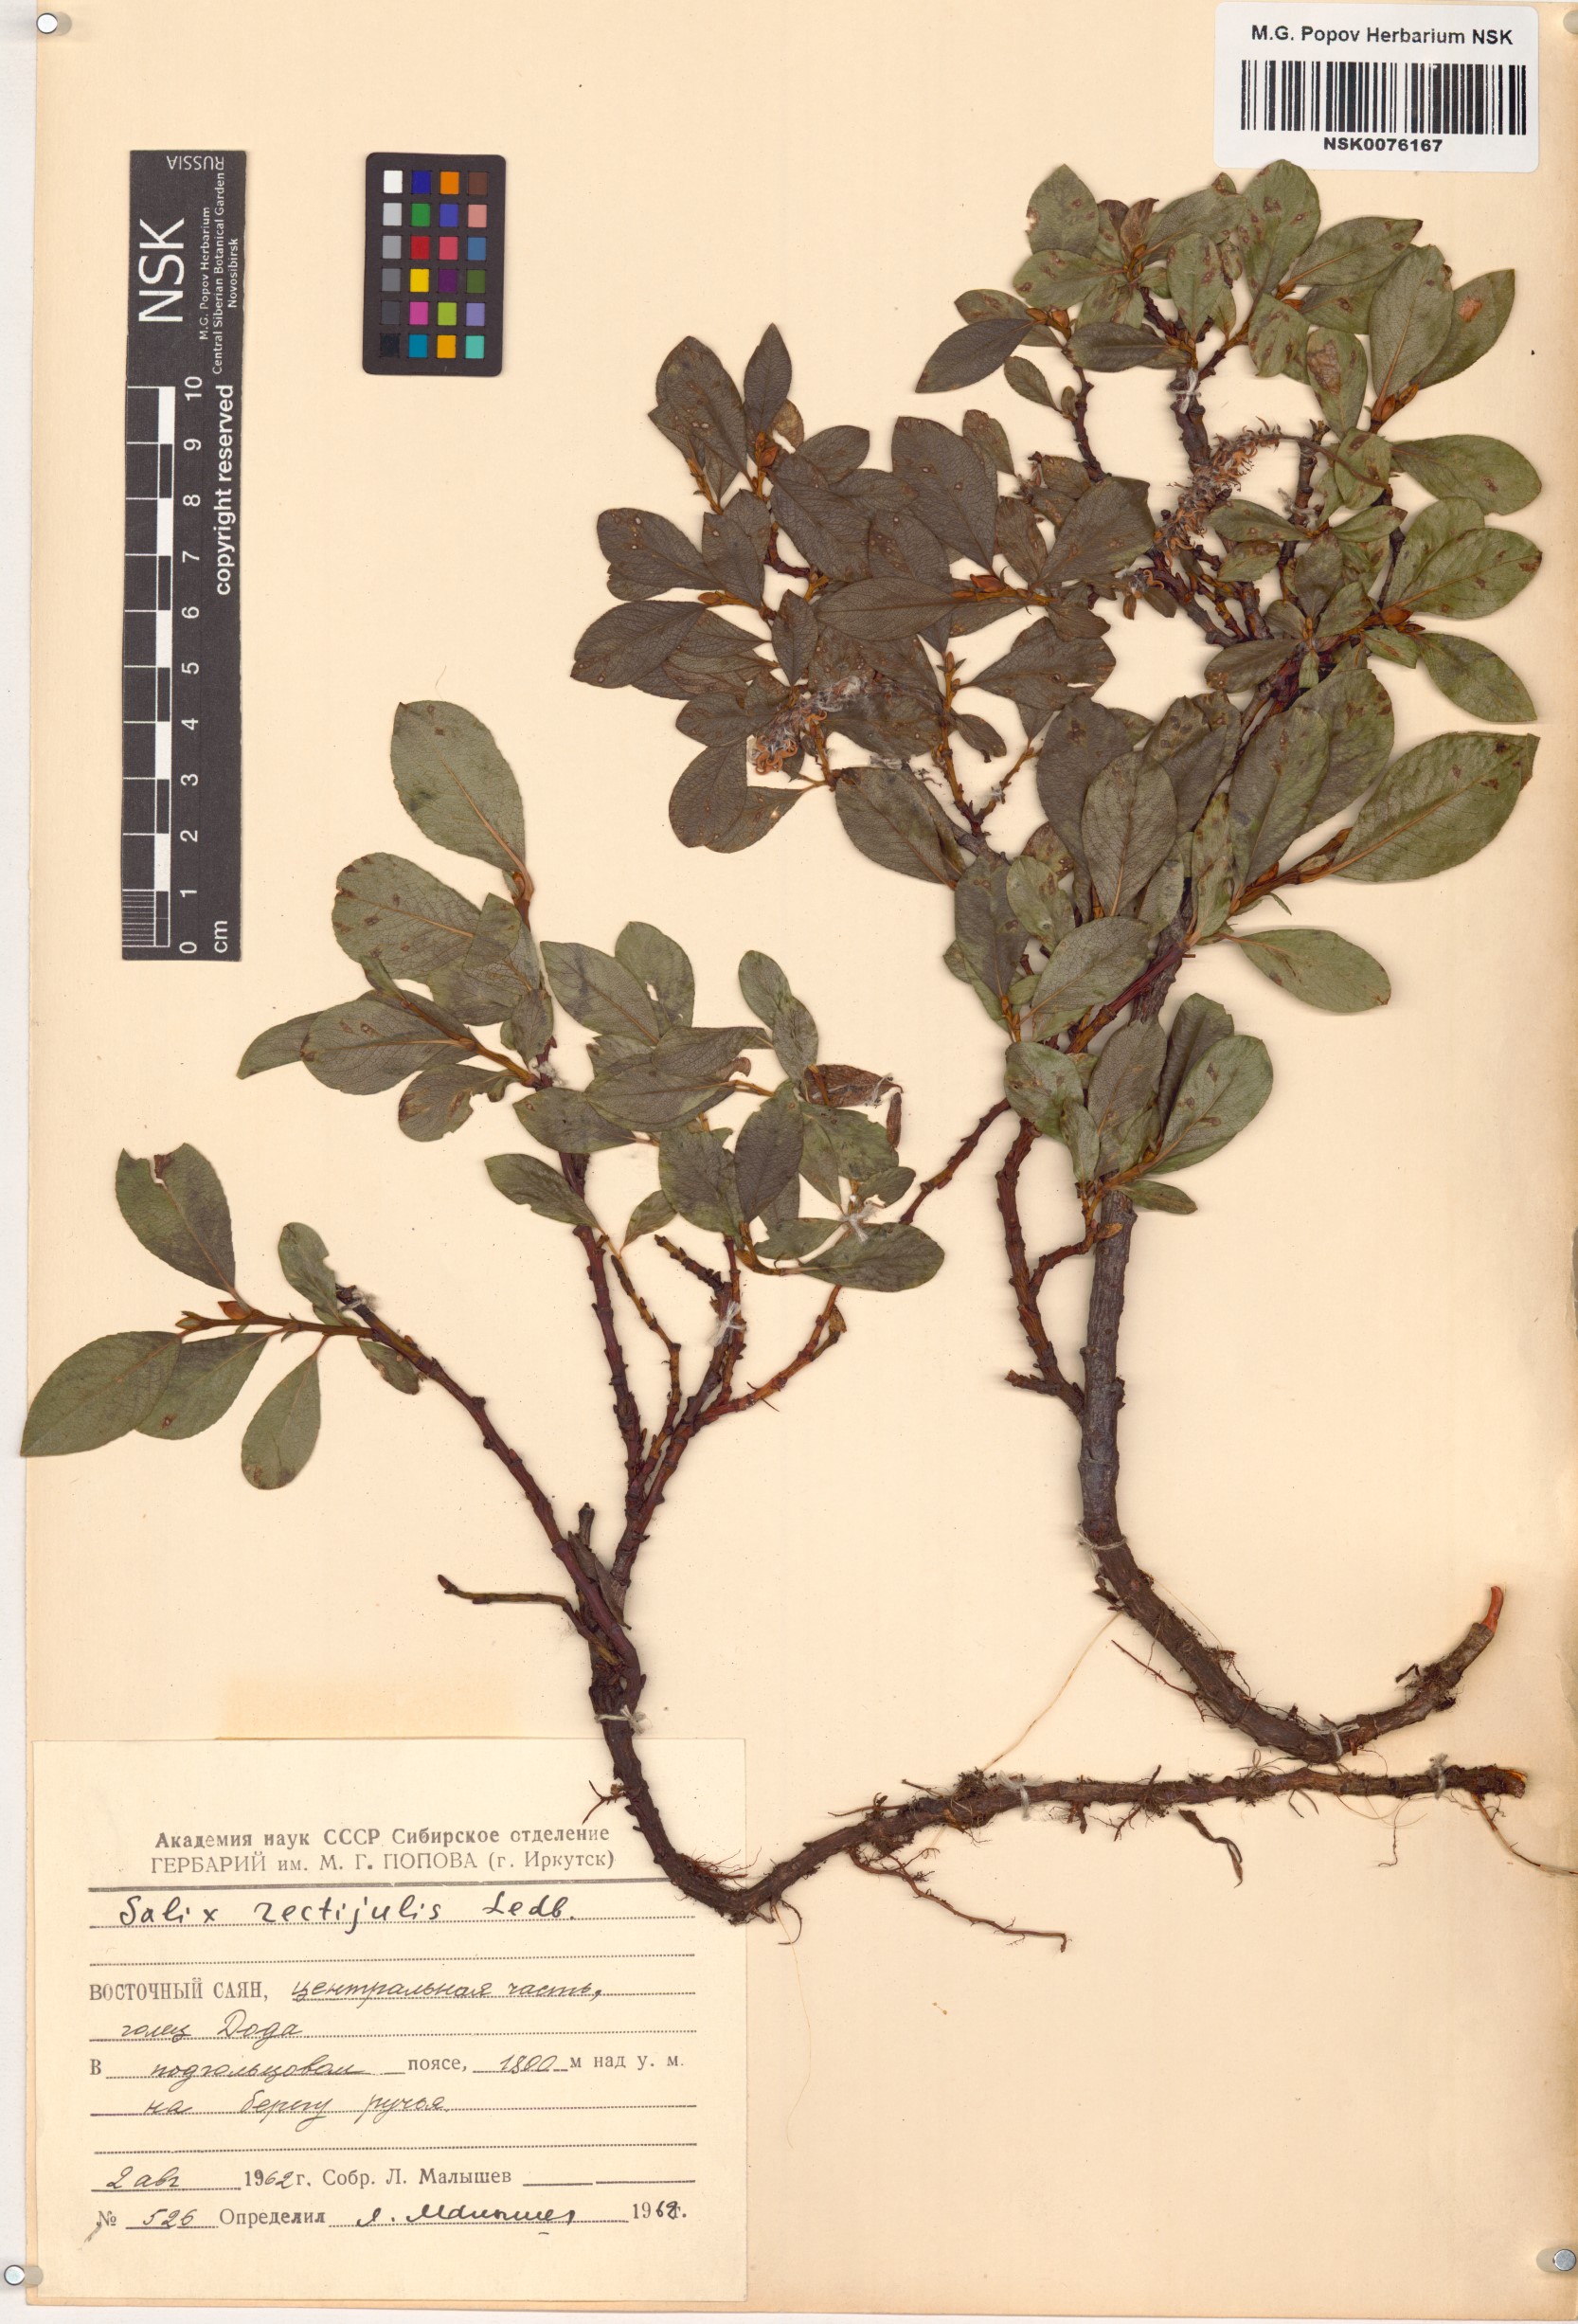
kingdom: Plantae
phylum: Tracheophyta
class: Magnoliopsida
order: Malpighiales
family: Salicaceae
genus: Salix
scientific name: Salix rectijulis
